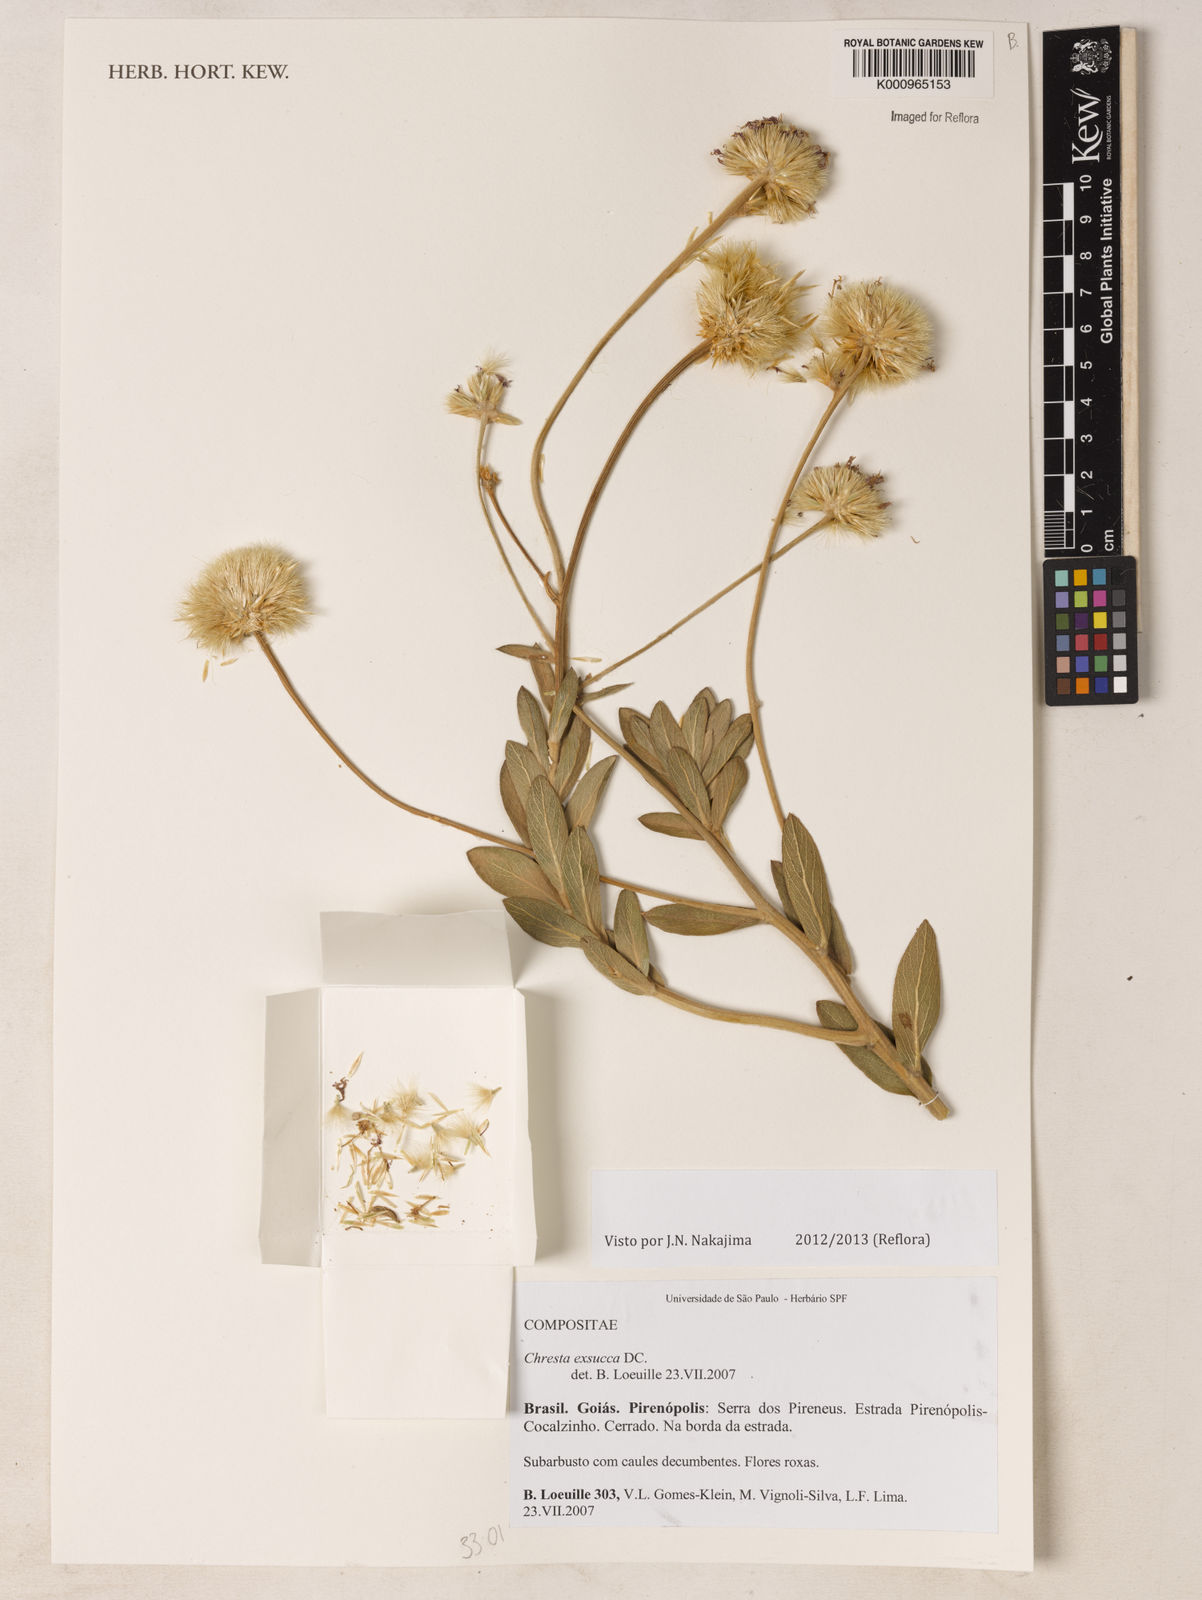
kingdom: Plantae
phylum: Tracheophyta
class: Magnoliopsida
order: Asterales
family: Asteraceae
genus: Chresta
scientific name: Chresta exsucca
